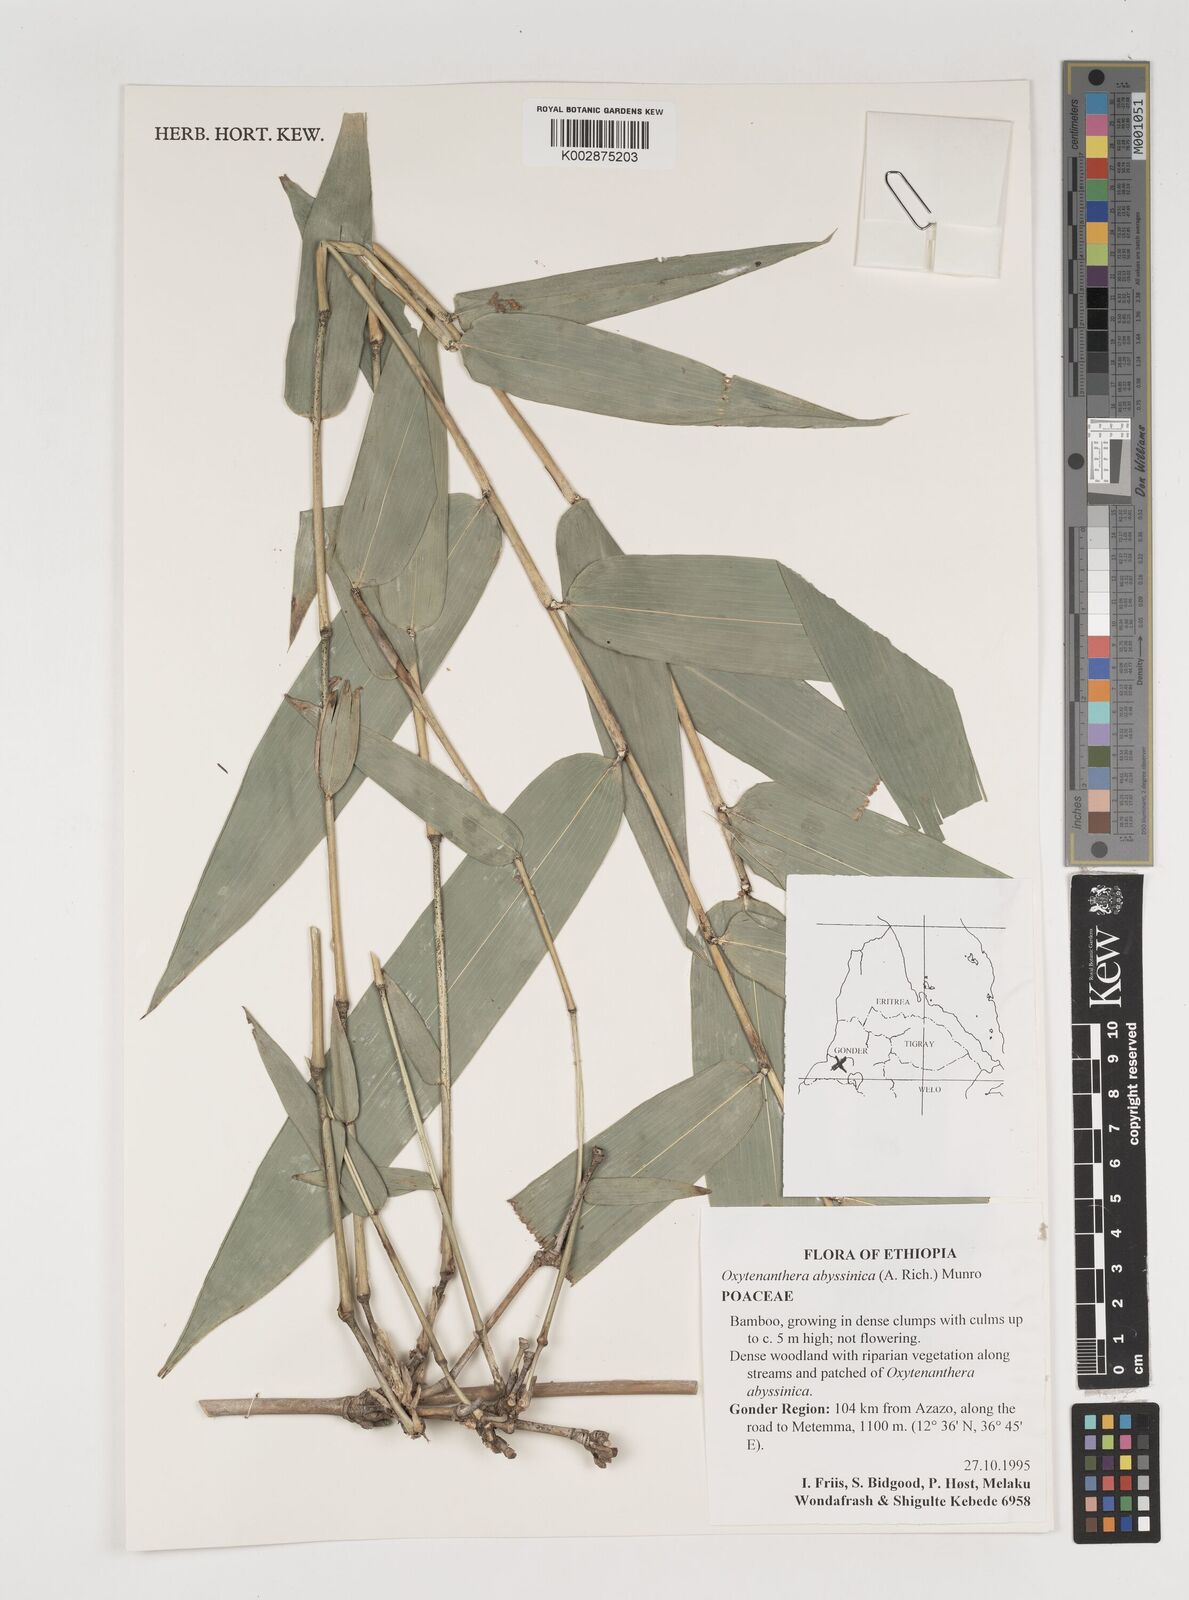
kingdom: Plantae
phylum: Tracheophyta
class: Liliopsida
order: Poales
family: Poaceae
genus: Oxytenanthera
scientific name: Oxytenanthera abyssinica
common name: Wine bamboo
